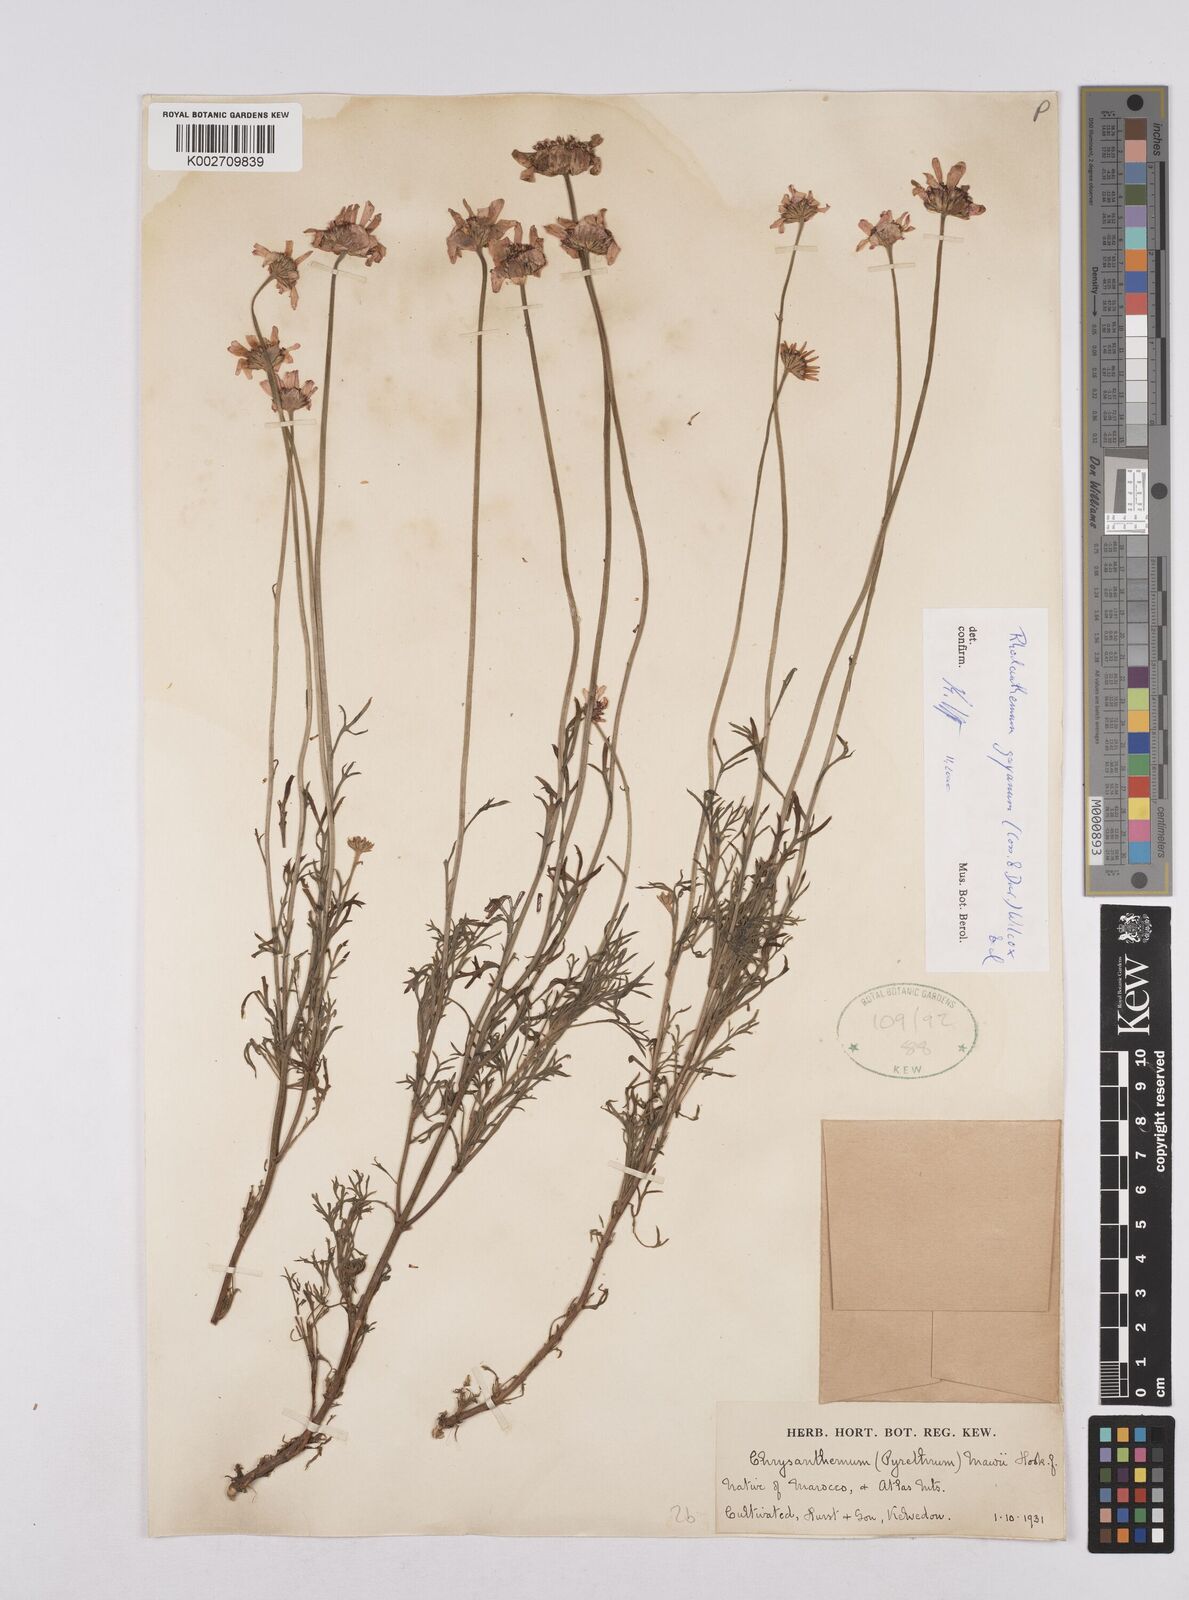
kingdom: Plantae
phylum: Tracheophyta
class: Magnoliopsida
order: Asterales
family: Asteraceae
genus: Rhodanthemum
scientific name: Rhodanthemum gayanum
